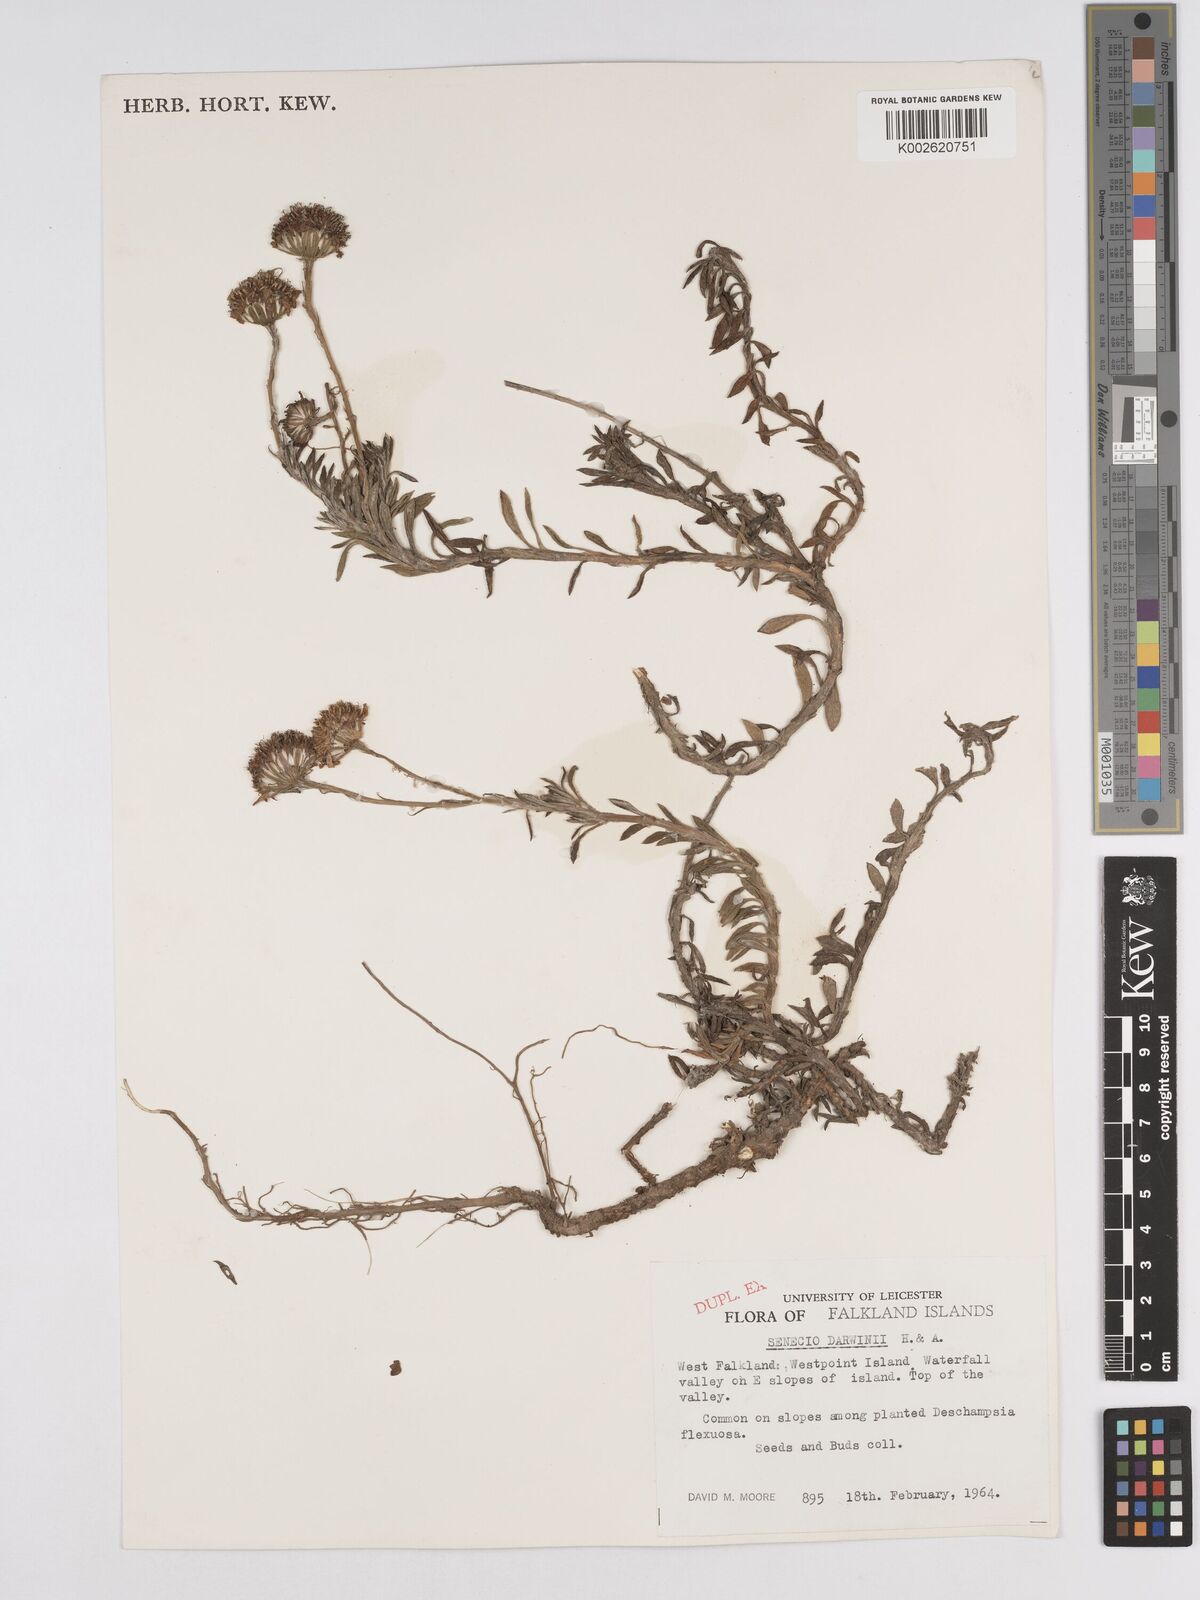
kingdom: Plantae
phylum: Tracheophyta
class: Magnoliopsida
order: Asterales
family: Asteraceae
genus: Senecio
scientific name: Senecio darwinii
